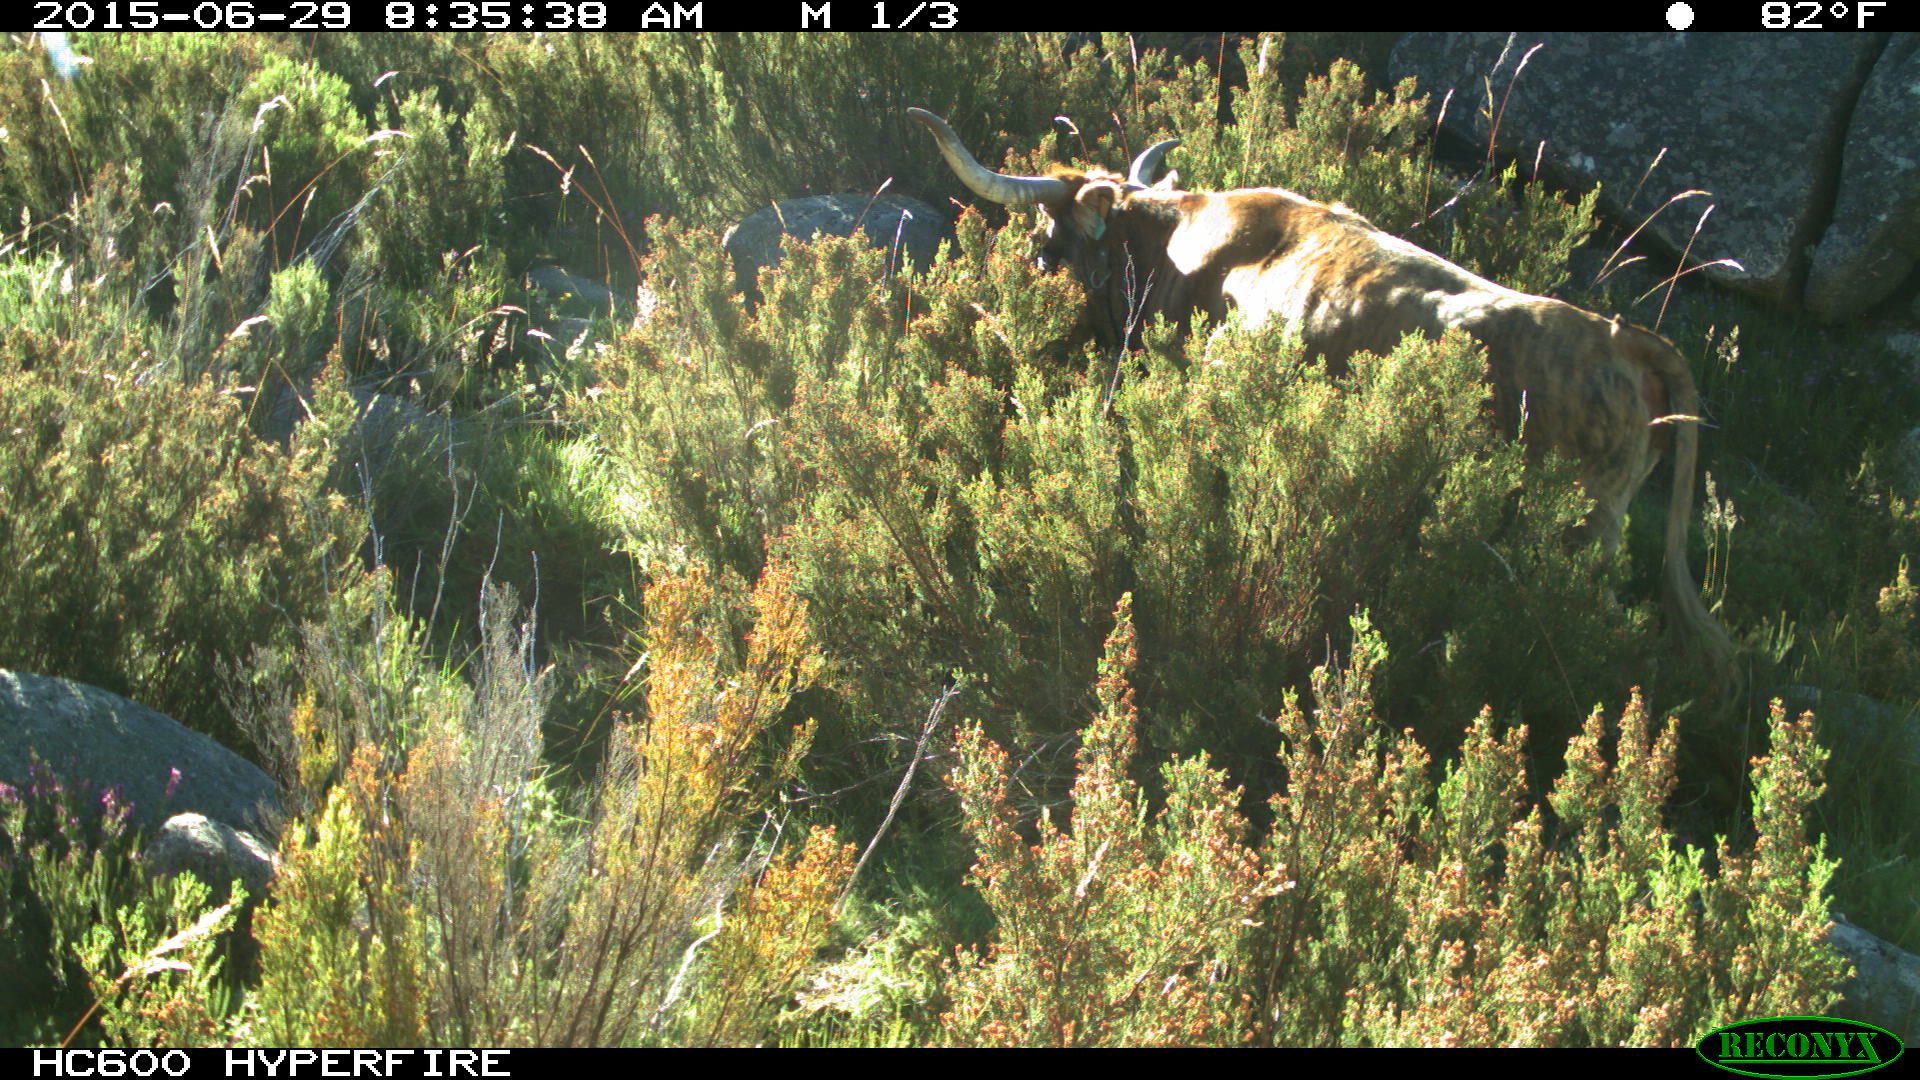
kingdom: Animalia
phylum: Chordata
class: Mammalia
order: Artiodactyla
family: Bovidae
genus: Bos
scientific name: Bos taurus
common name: Domesticated cattle
